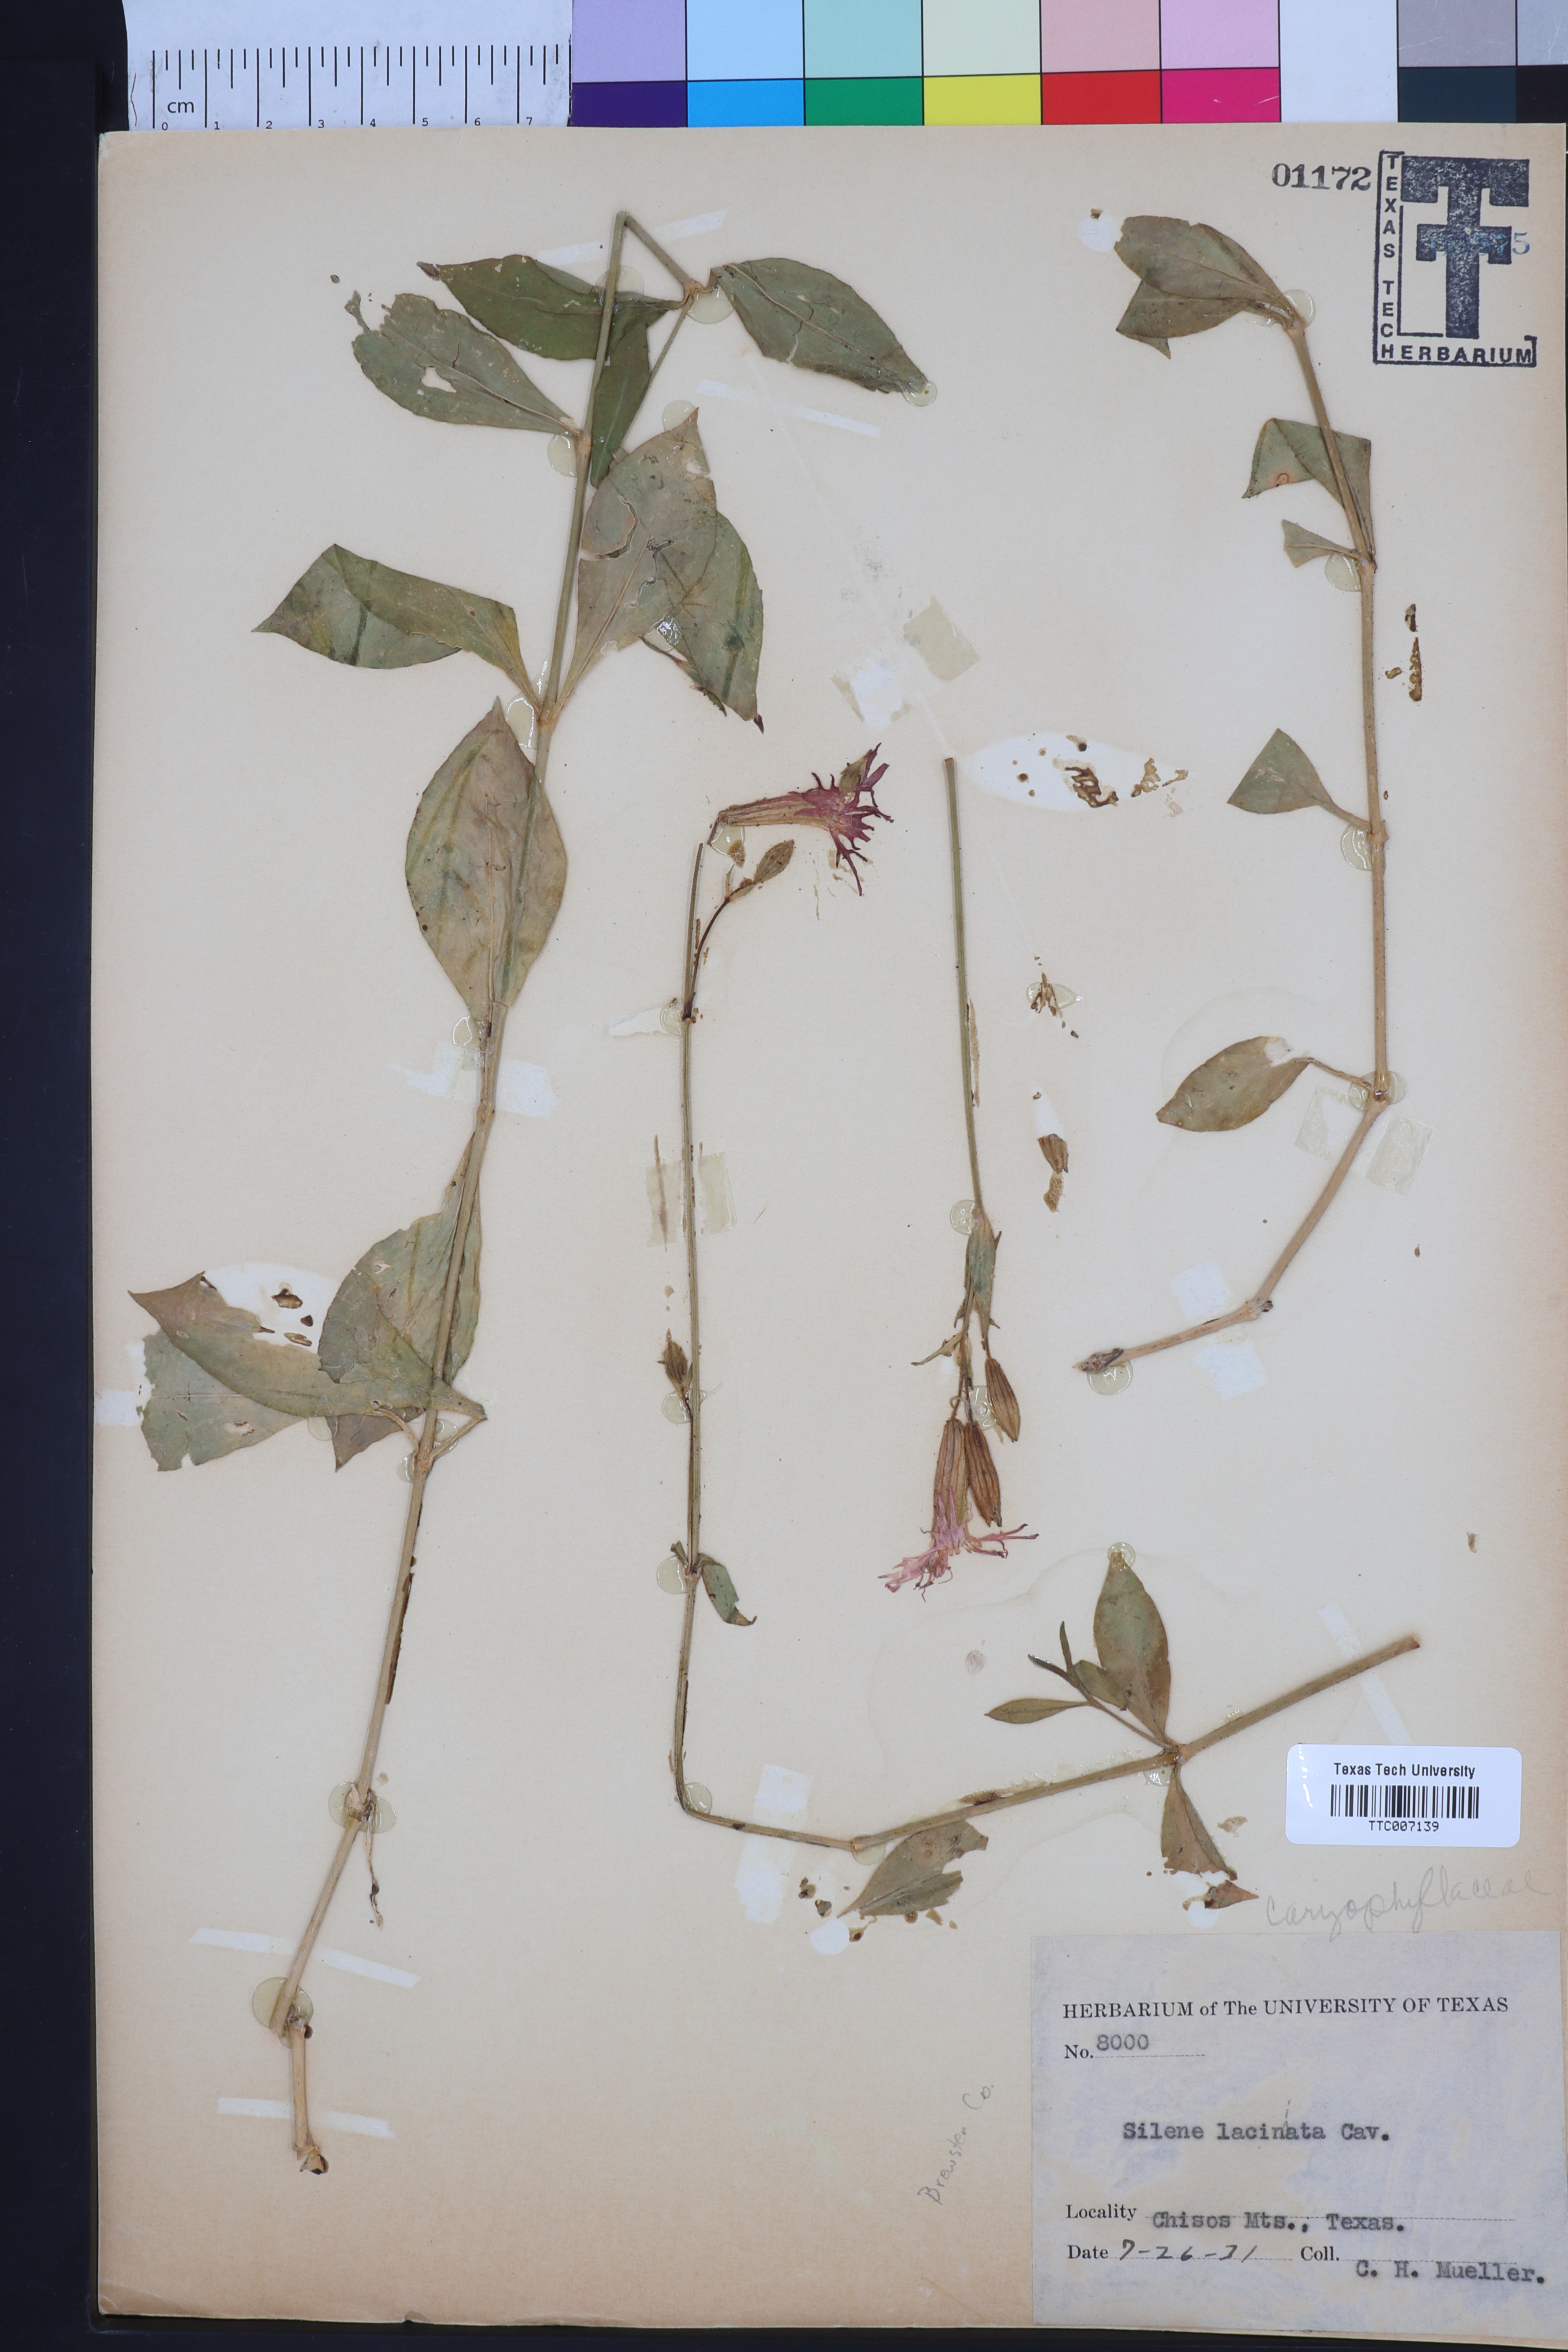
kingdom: Plantae
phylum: Tracheophyta
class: Magnoliopsida
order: Caryophyllales
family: Caryophyllaceae
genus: Silene
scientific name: Silene laciniata
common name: Indian-pink
